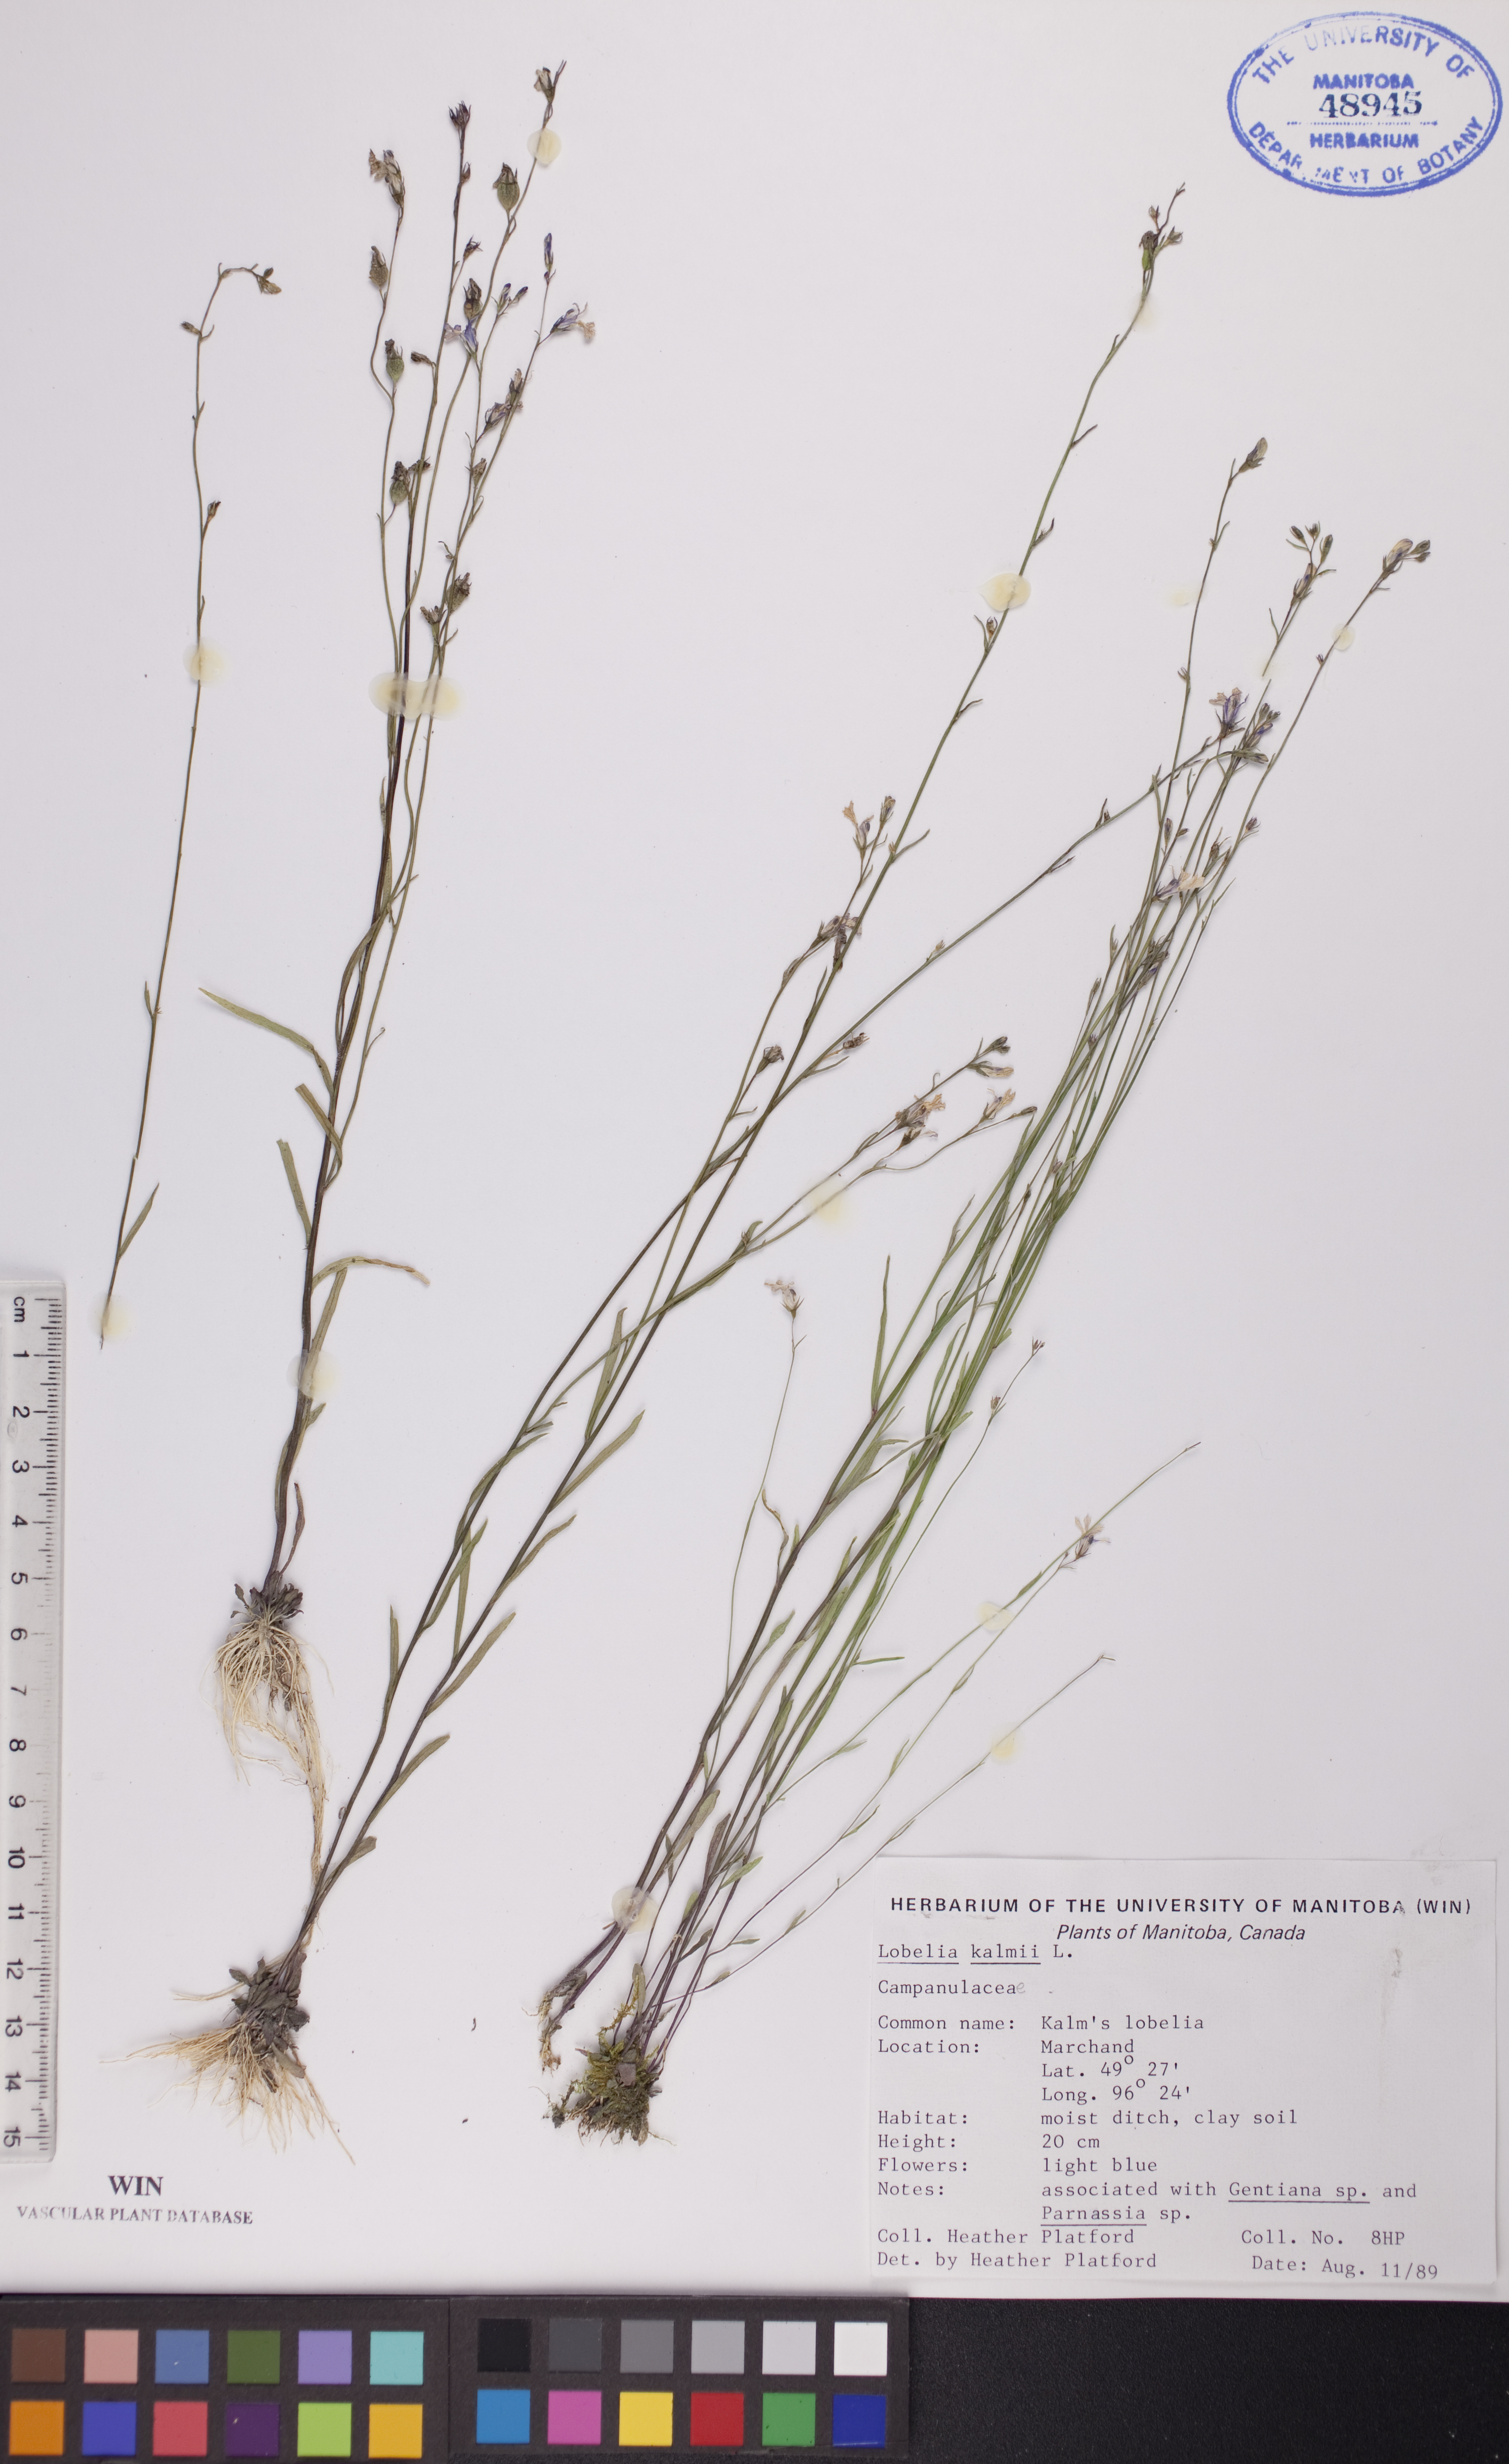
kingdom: Plantae
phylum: Tracheophyta
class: Magnoliopsida
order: Asterales
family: Campanulaceae
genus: Lobelia
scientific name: Lobelia kalmii
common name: Kalm's lobelia
